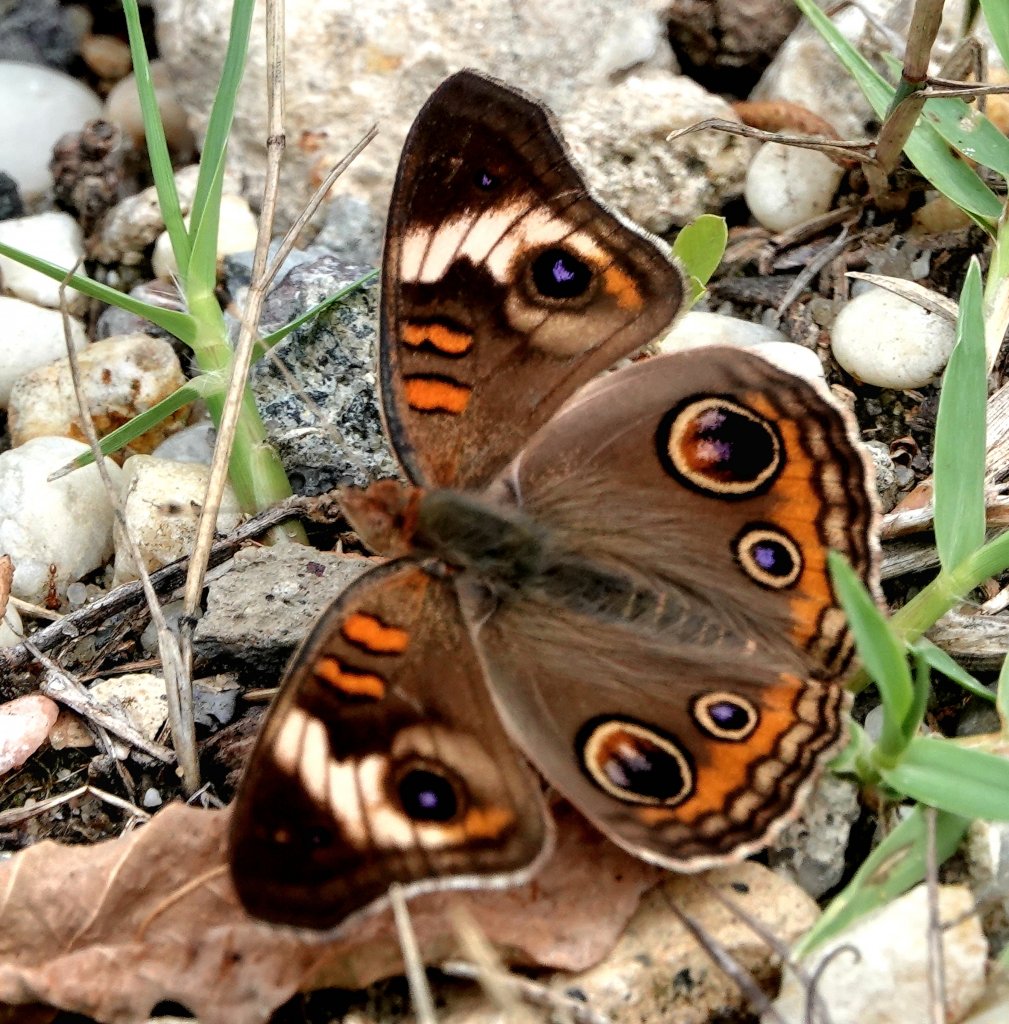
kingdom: Animalia
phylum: Arthropoda
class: Insecta
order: Lepidoptera
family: Nymphalidae
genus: Junonia
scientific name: Junonia coenia
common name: Common Buckeye
